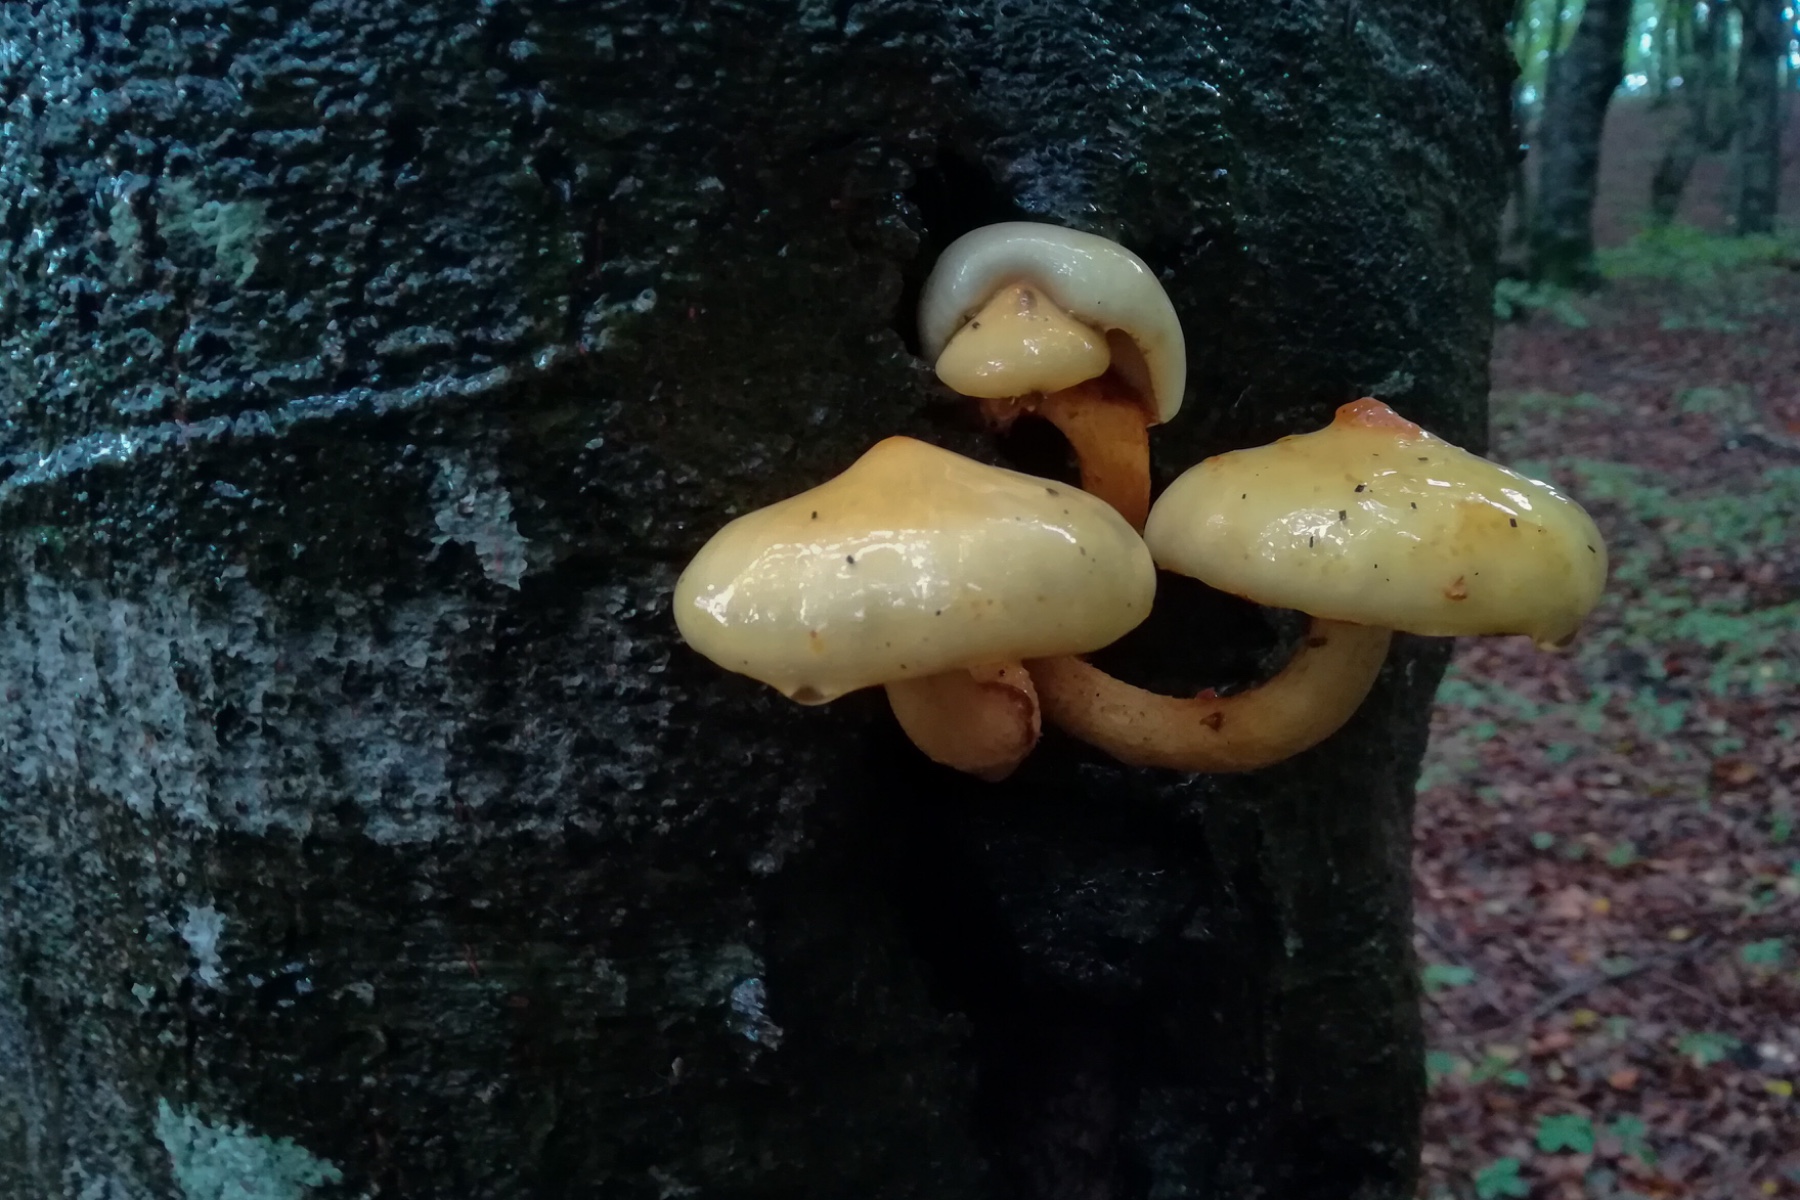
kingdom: Fungi
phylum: Basidiomycota
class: Agaricomycetes
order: Agaricales
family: Strophariaceae
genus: Pholiota
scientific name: Pholiota adiposa
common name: højtsiddende skælhat
